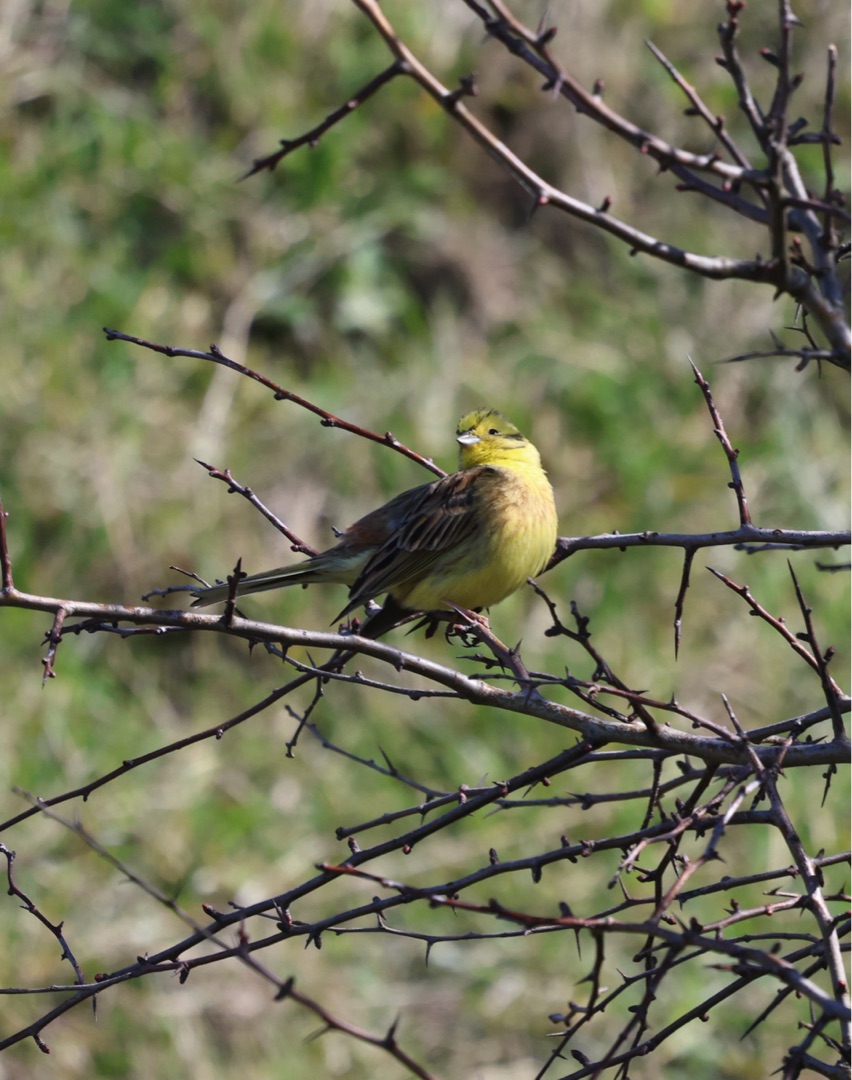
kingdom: Animalia
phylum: Chordata
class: Aves
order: Passeriformes
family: Emberizidae
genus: Emberiza
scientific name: Emberiza citrinella
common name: Gulspurv
